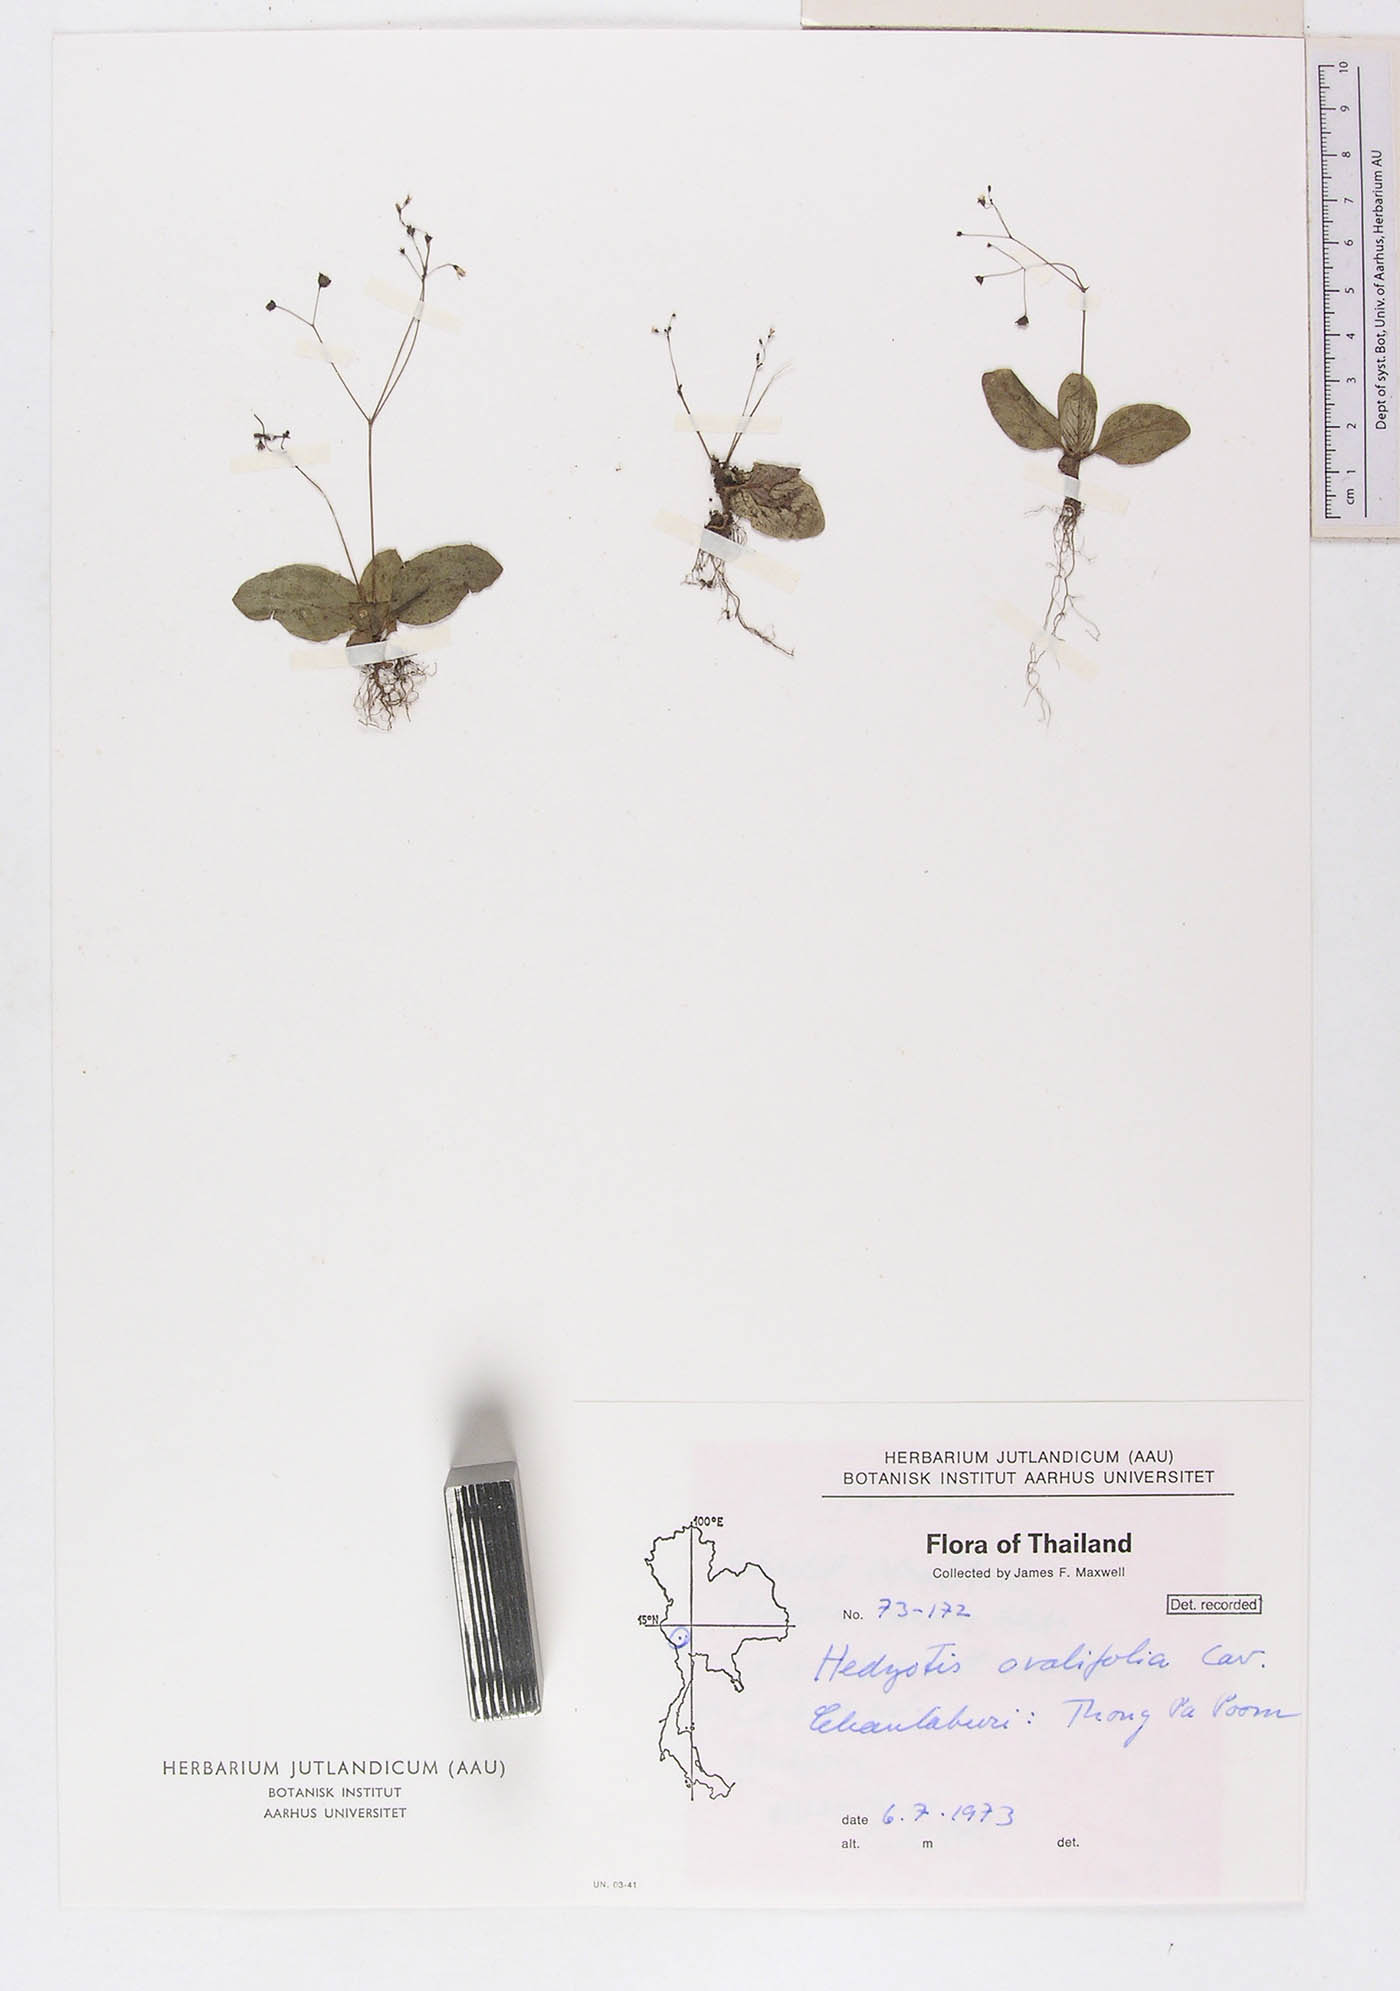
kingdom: Plantae
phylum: Tracheophyta
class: Magnoliopsida
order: Gentianales
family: Rubiaceae
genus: Debia
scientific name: Debia ovatifolia
